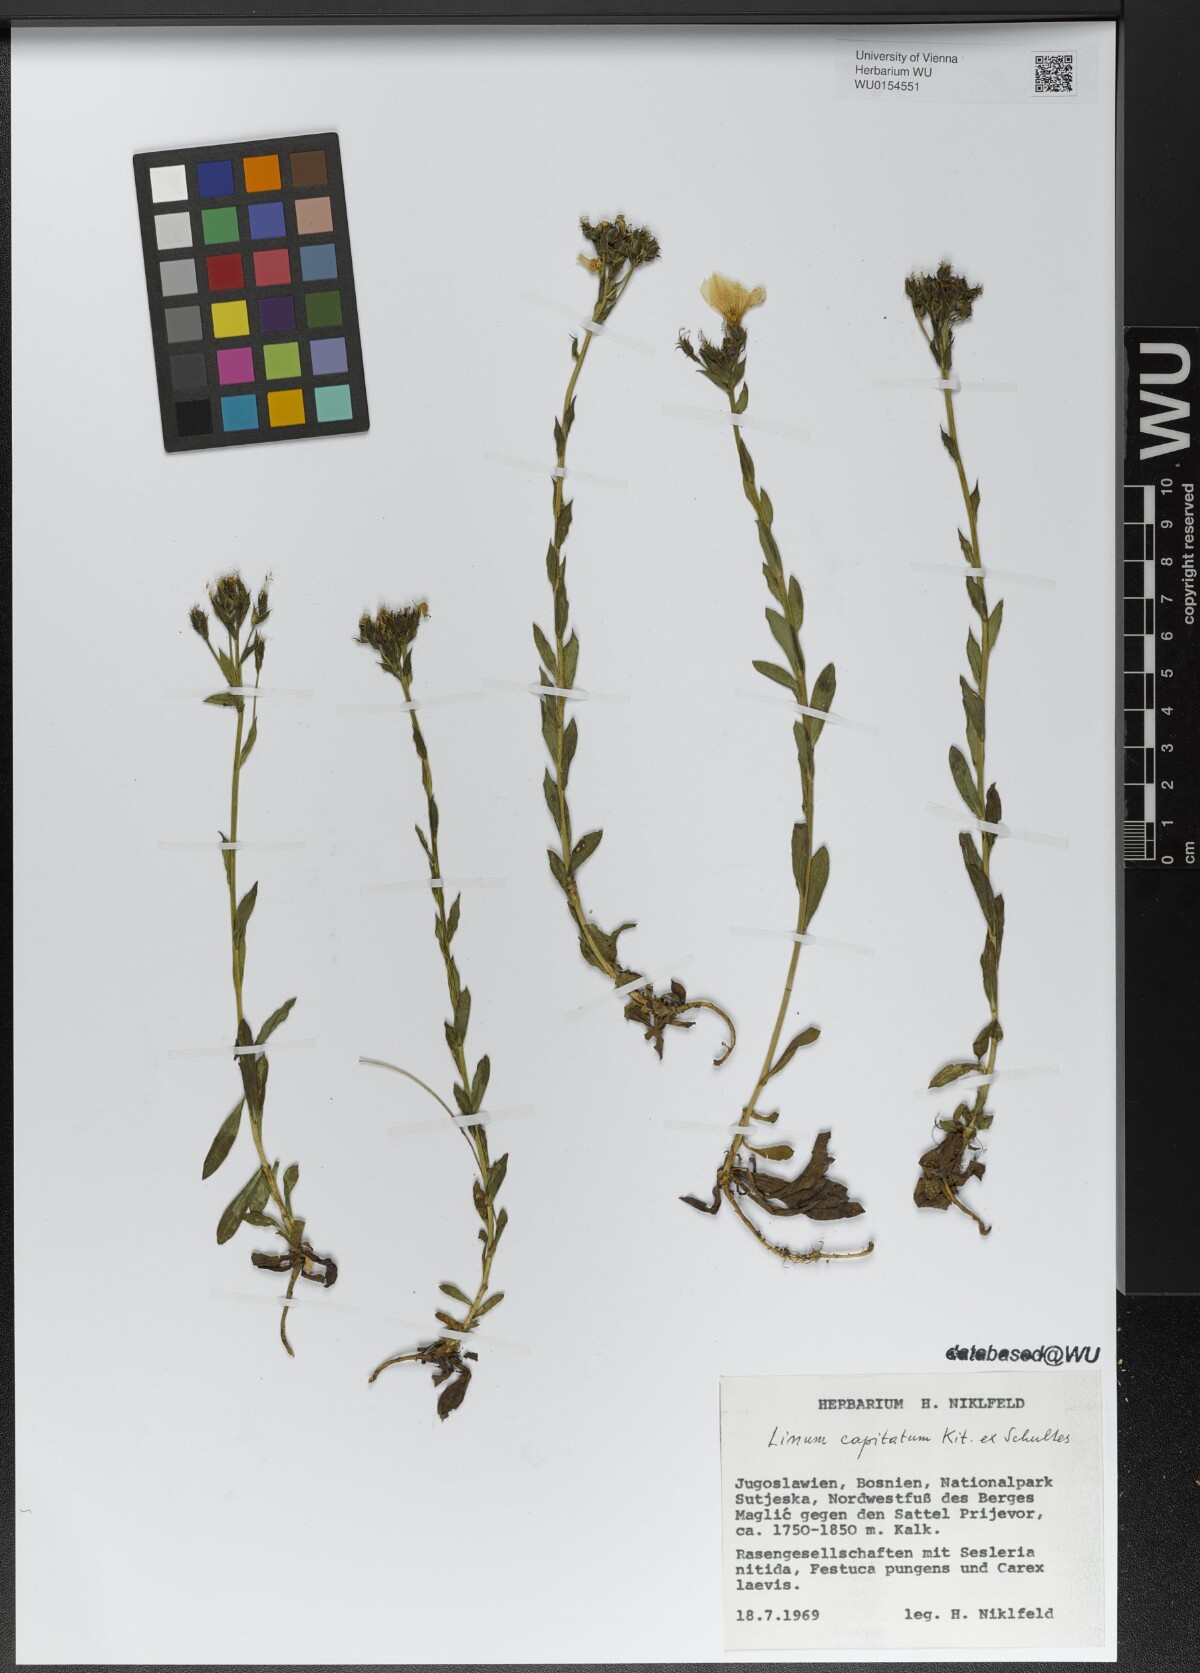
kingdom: Plantae
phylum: Tracheophyta
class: Magnoliopsida
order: Malpighiales
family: Linaceae
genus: Linum
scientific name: Linum capitatum
